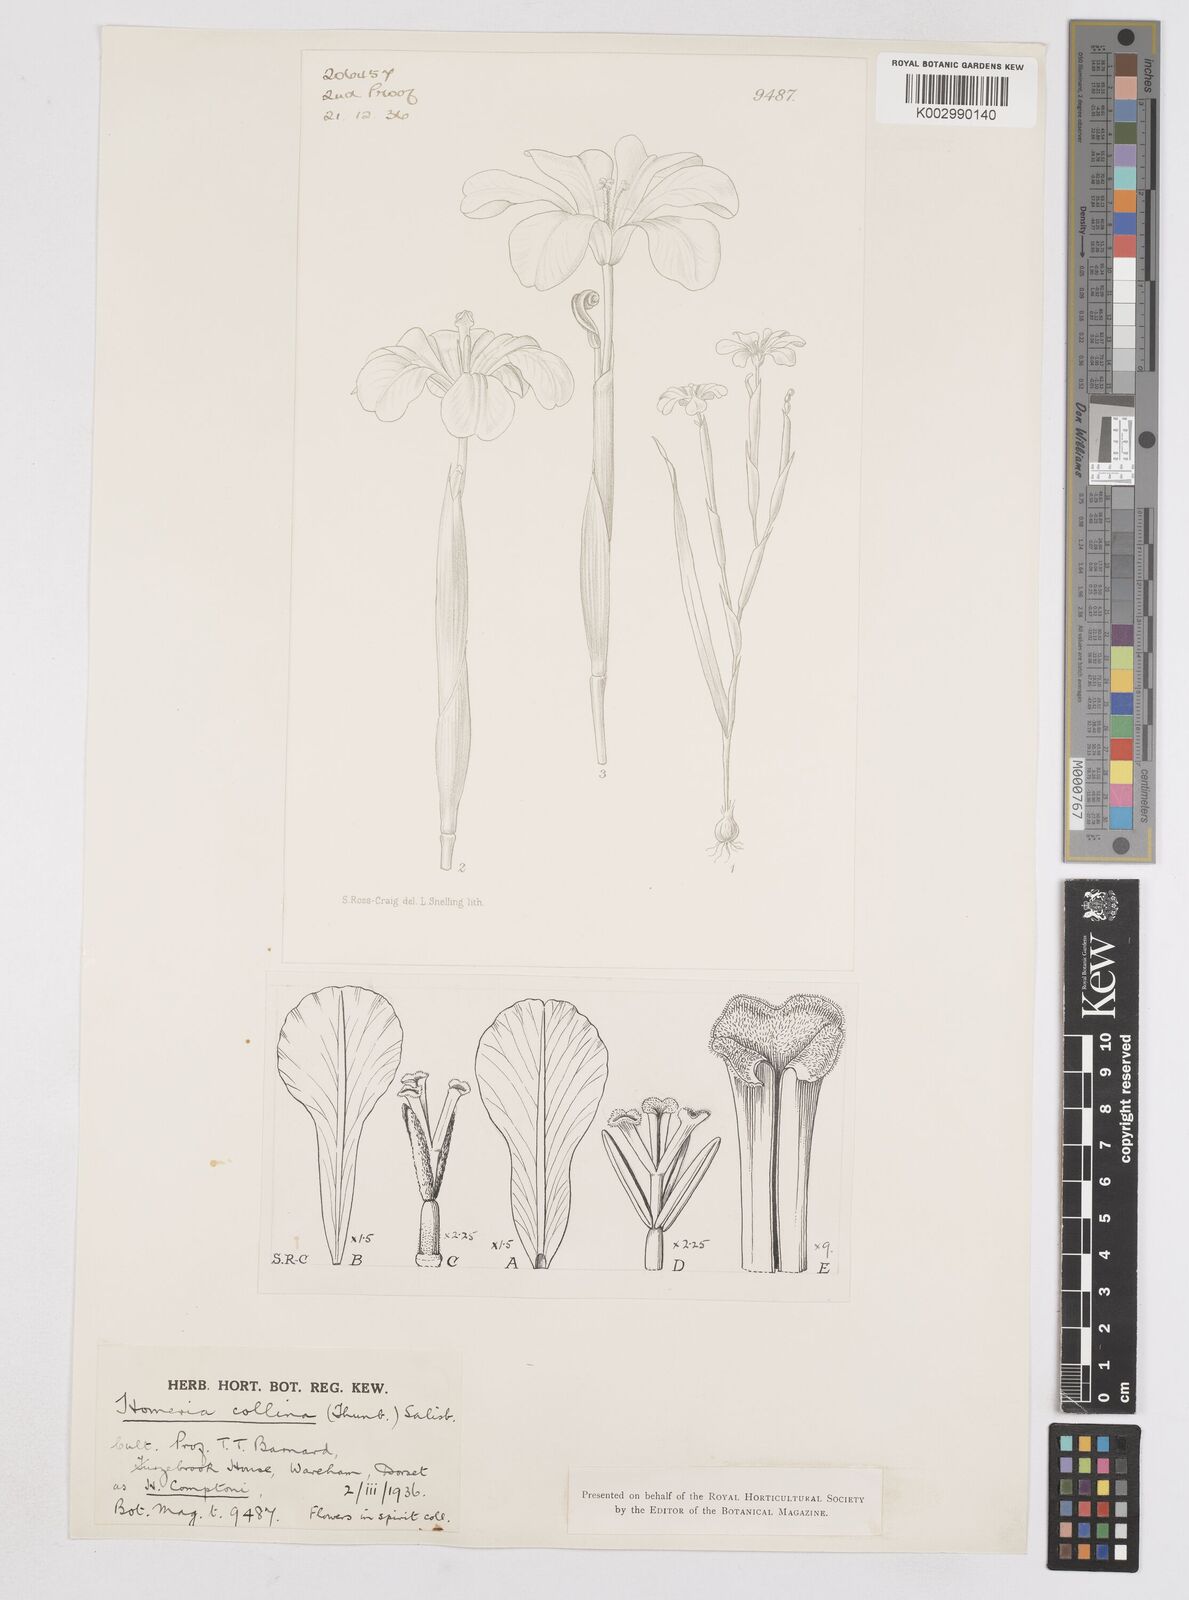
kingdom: Plantae
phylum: Tracheophyta
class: Liliopsida
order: Asparagales
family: Iridaceae
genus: Moraea
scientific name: Moraea collina
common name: Cape-tulip
